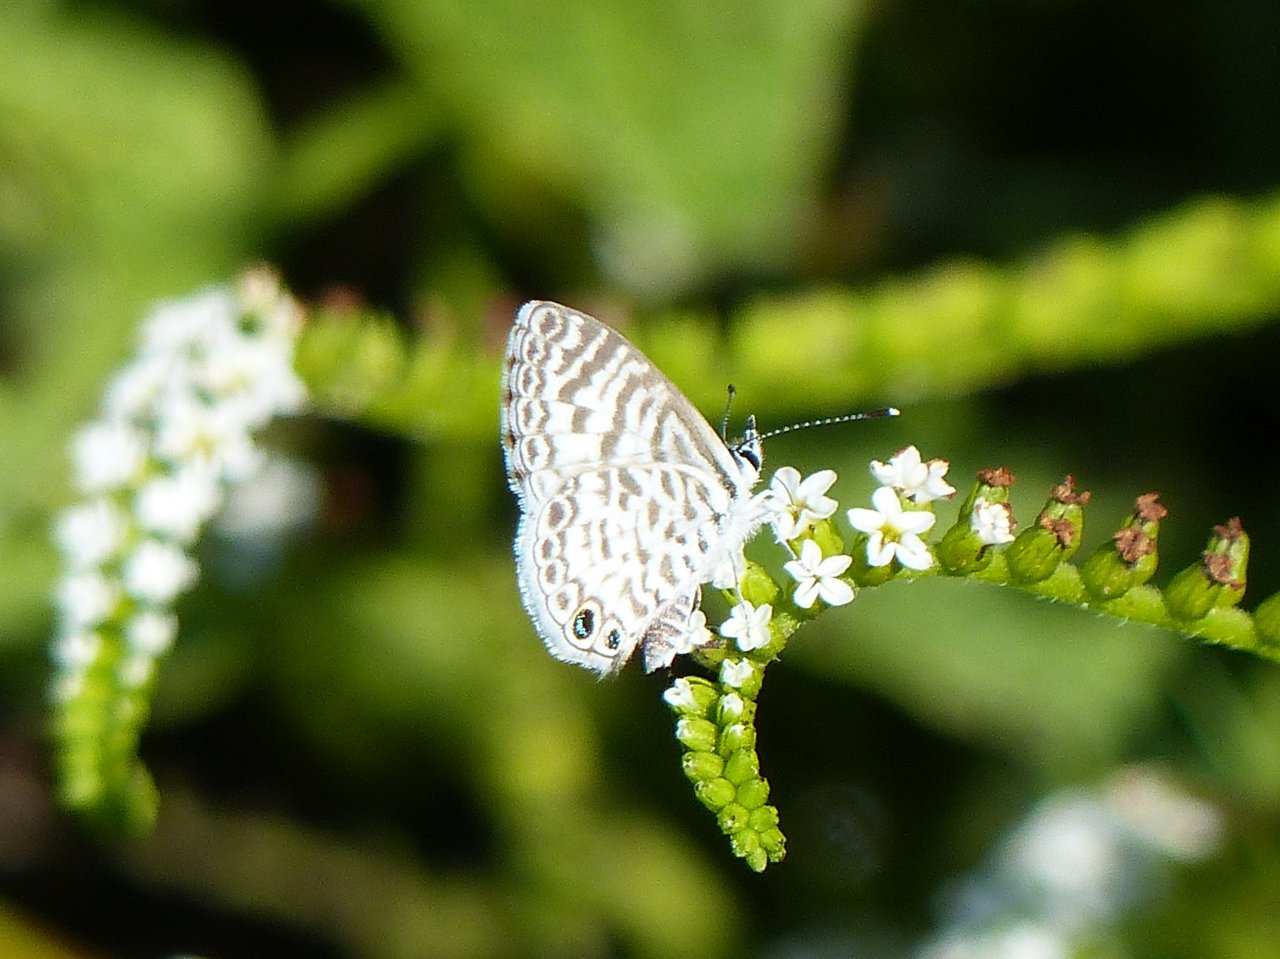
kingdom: Animalia
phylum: Arthropoda
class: Insecta
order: Lepidoptera
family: Lycaenidae
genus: Leptotes
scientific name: Leptotes cassius
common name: Cassius Blue
